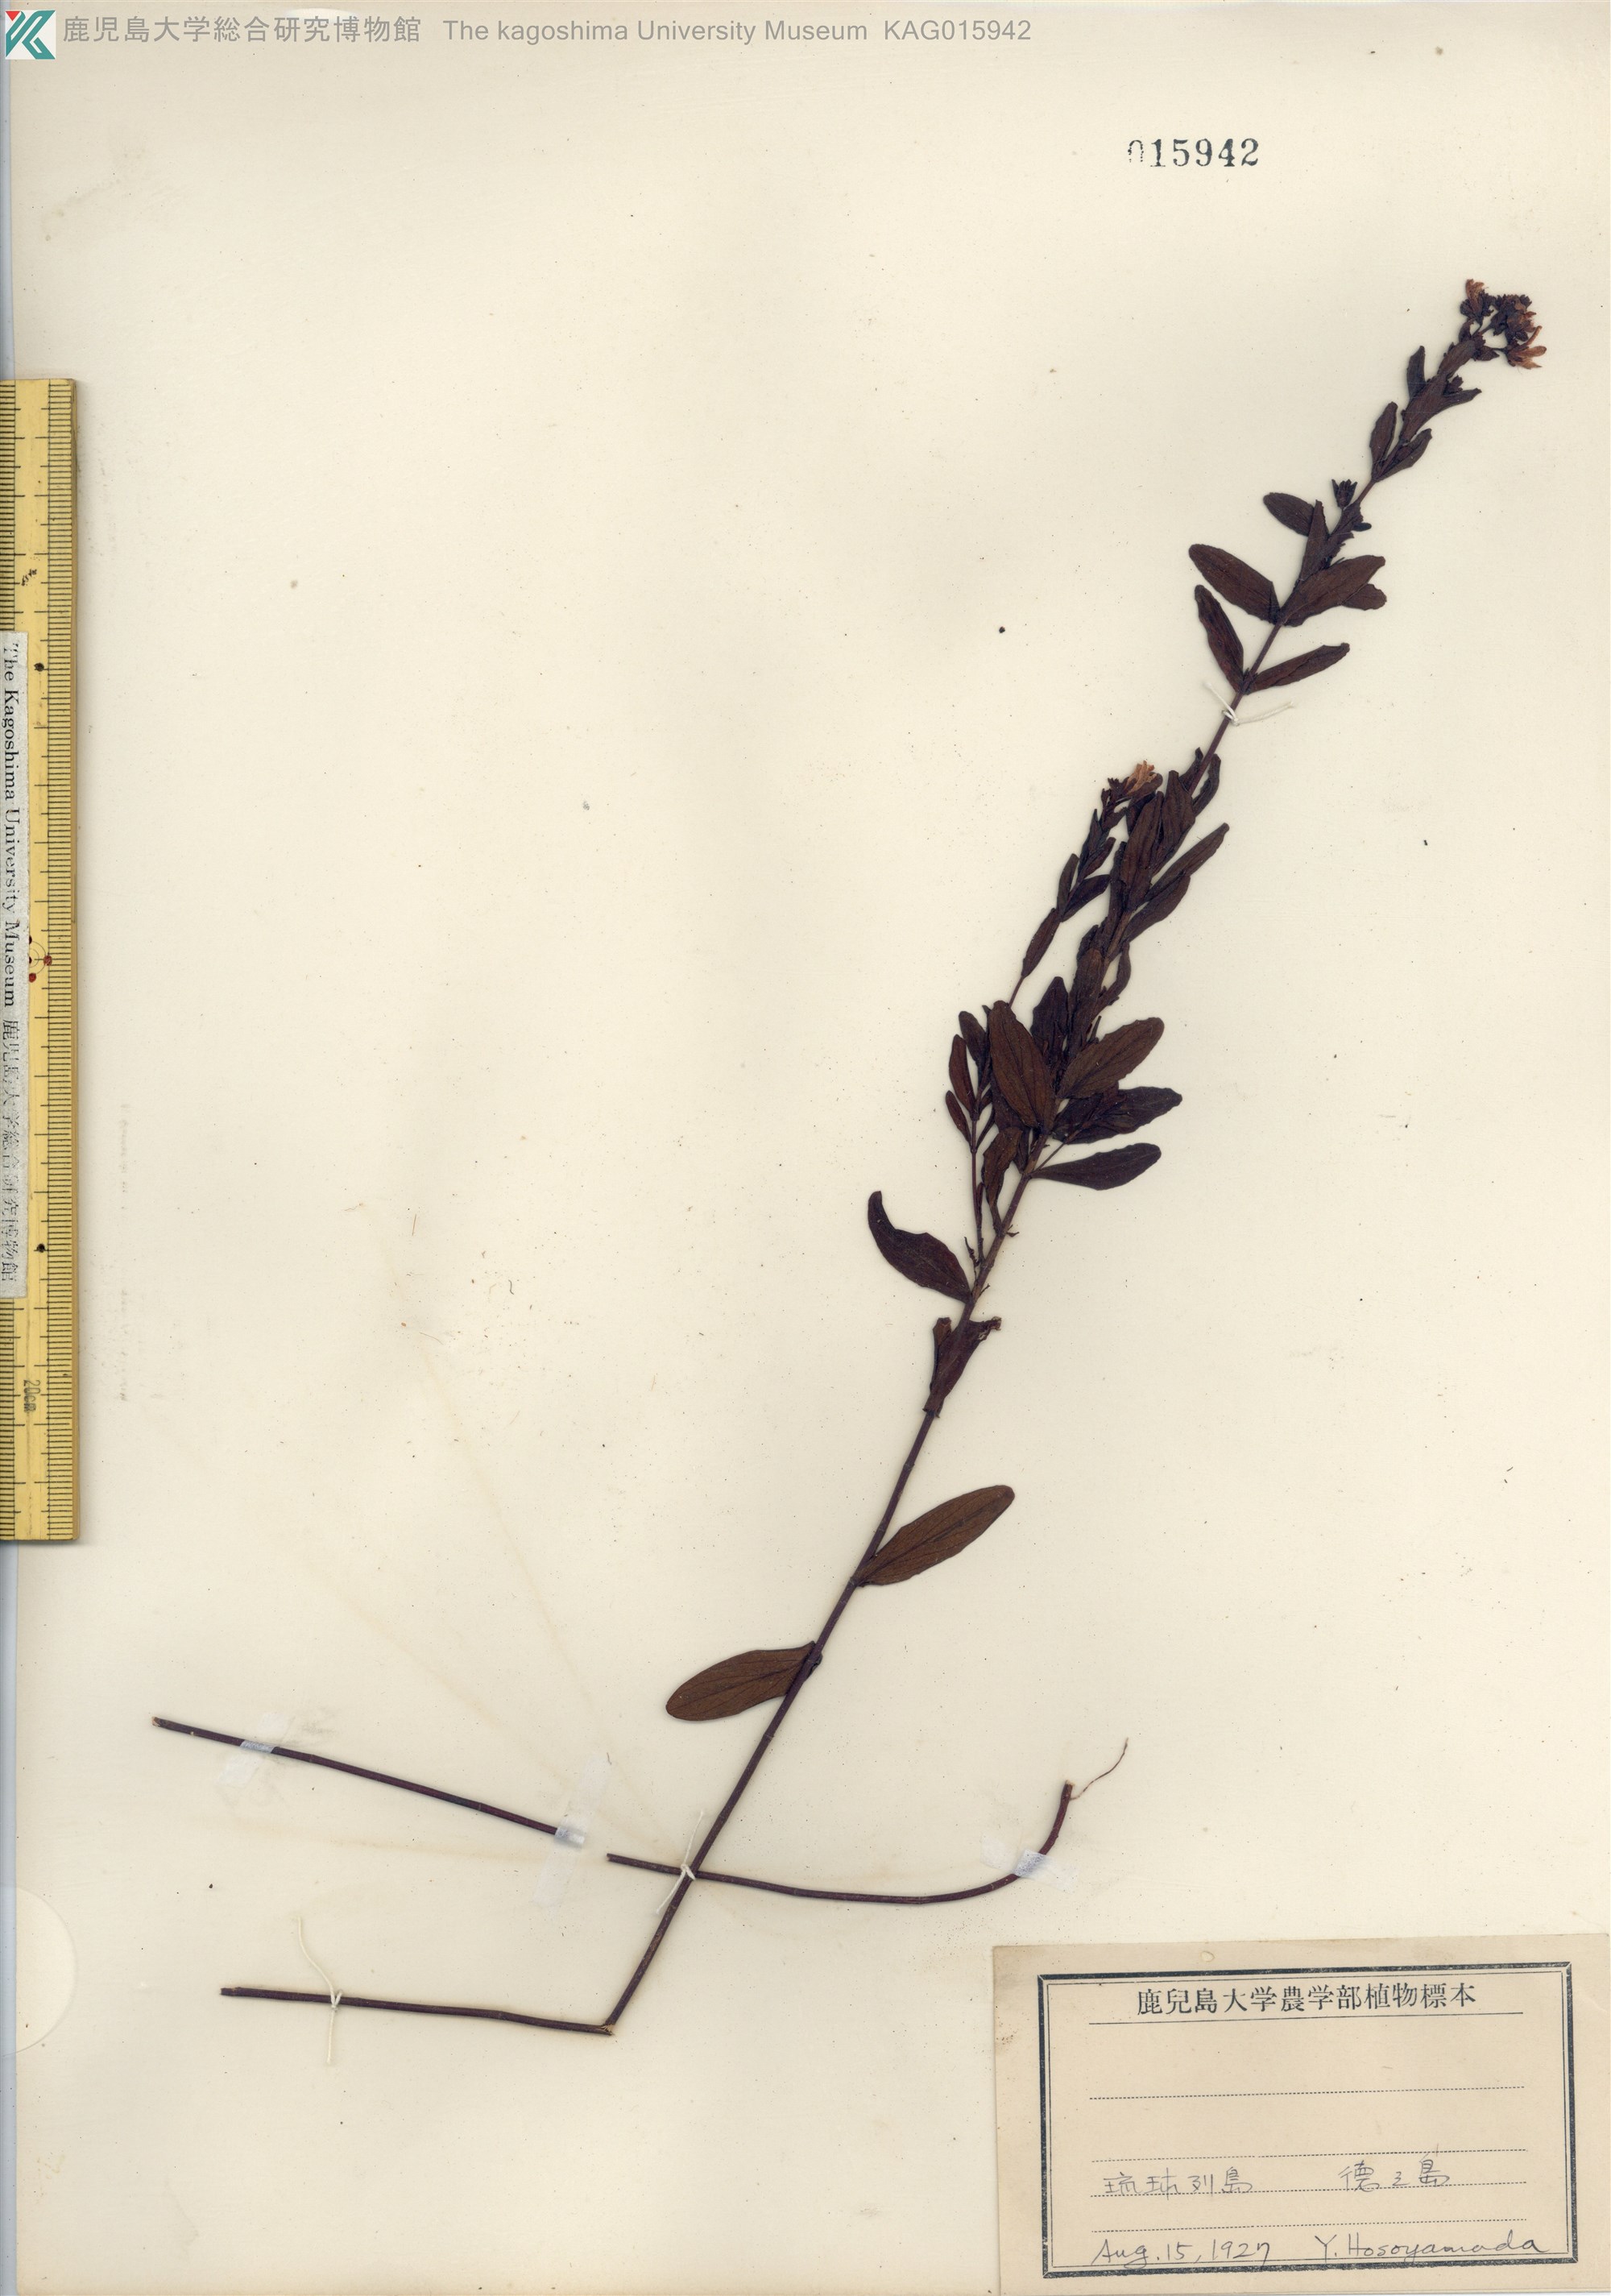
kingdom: Plantae
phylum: Tracheophyta
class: Magnoliopsida
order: Malpighiales
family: Hypericaceae
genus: Hypericum
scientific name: Hypericum erectum
